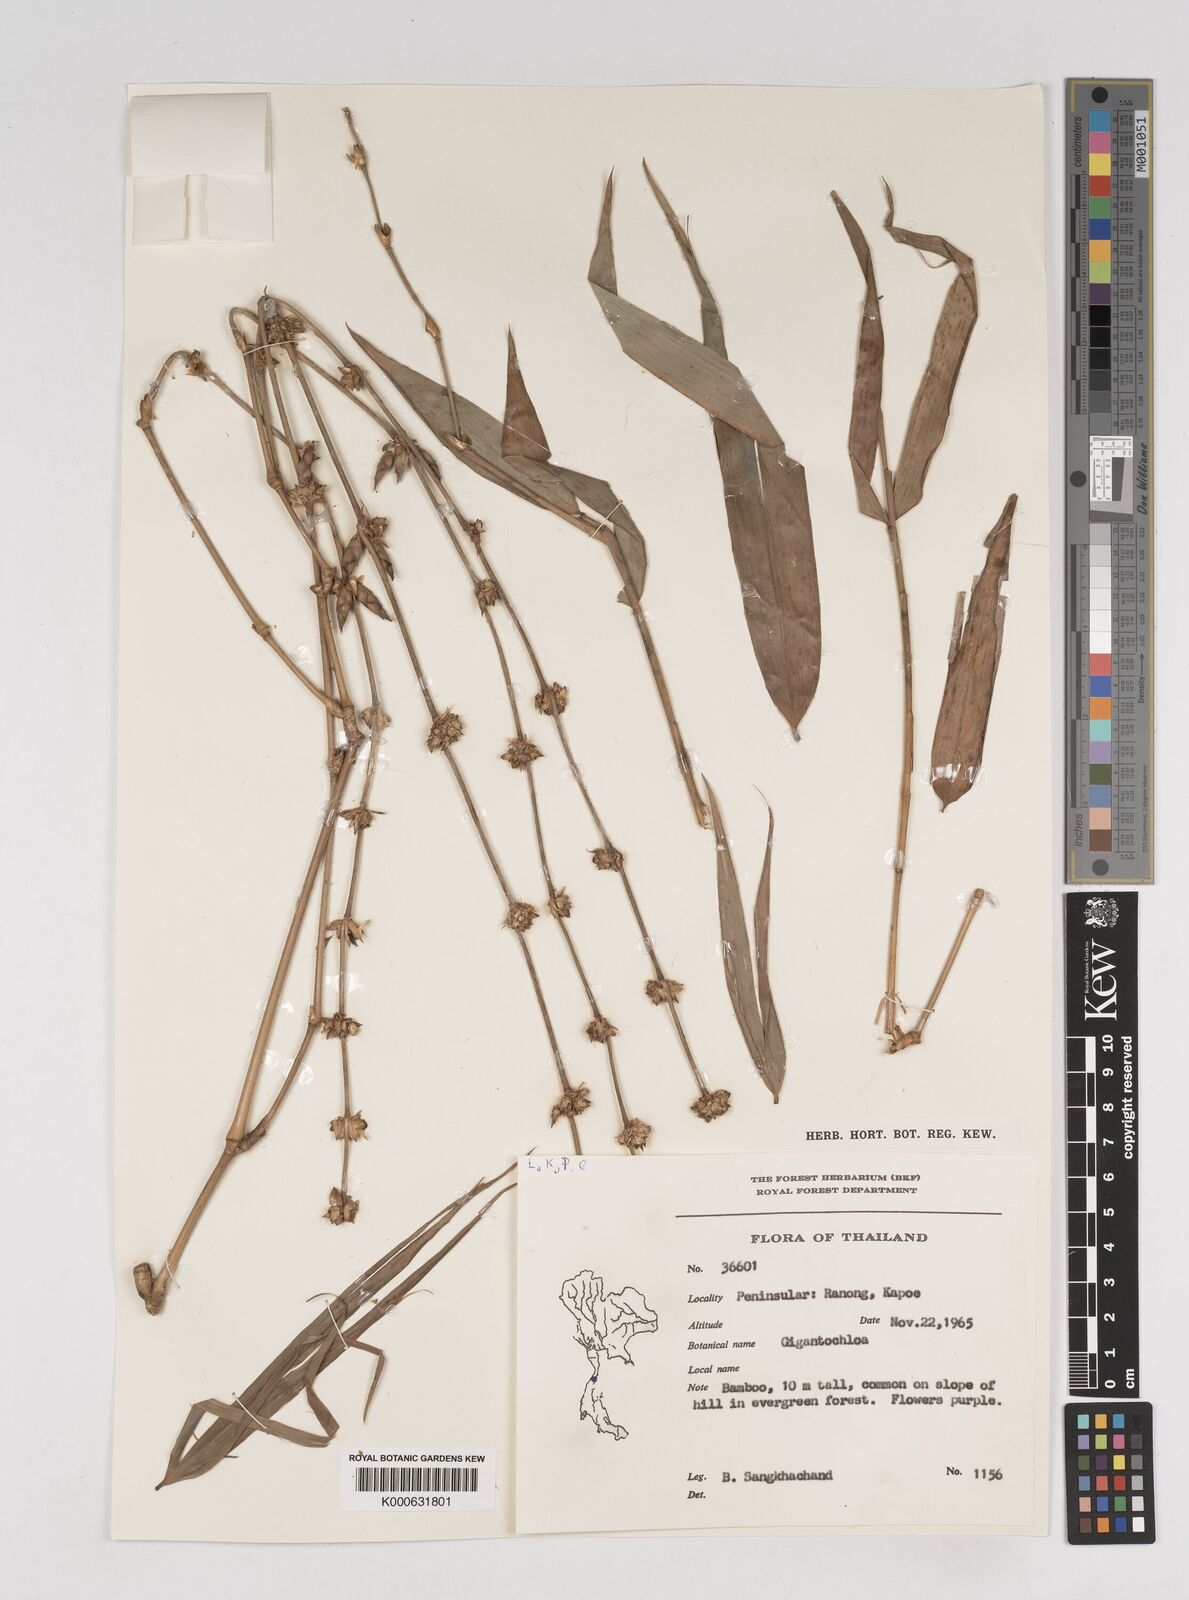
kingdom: Plantae
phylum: Tracheophyta
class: Liliopsida
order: Poales
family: Poaceae
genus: Gigantochloa
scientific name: Gigantochloa
